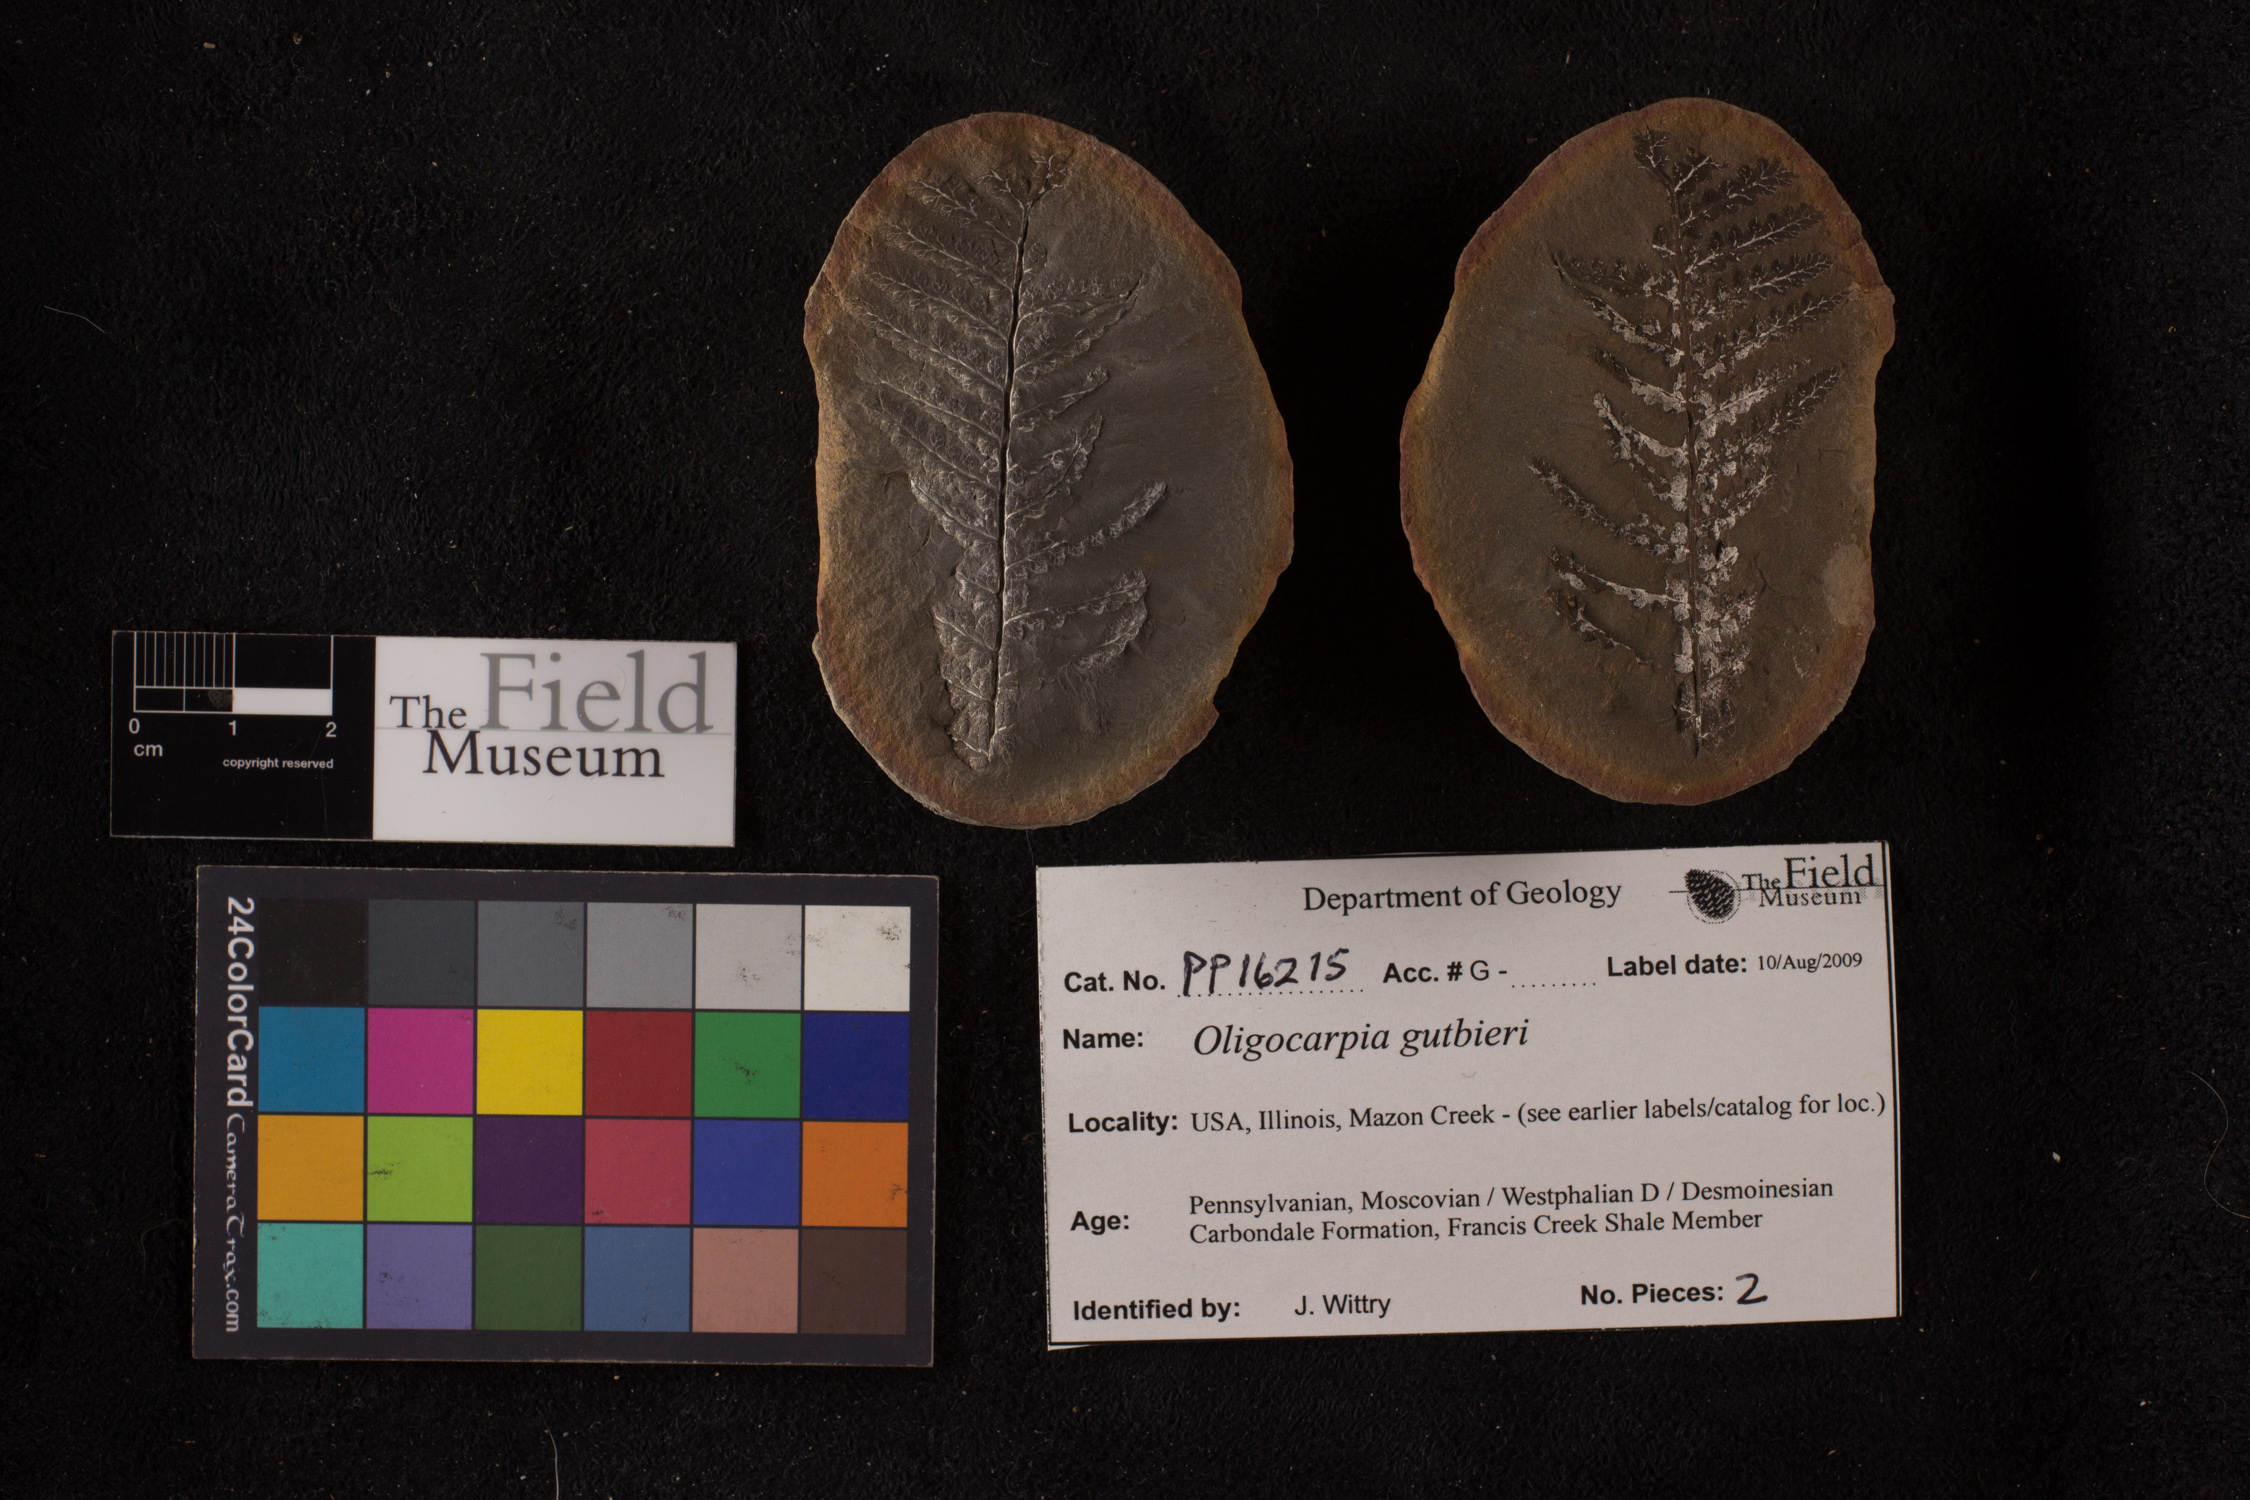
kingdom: Plantae
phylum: Tracheophyta
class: Polypodiopsida
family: Tedeleaceae
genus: Senftenbergia
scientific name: Senftenbergia
